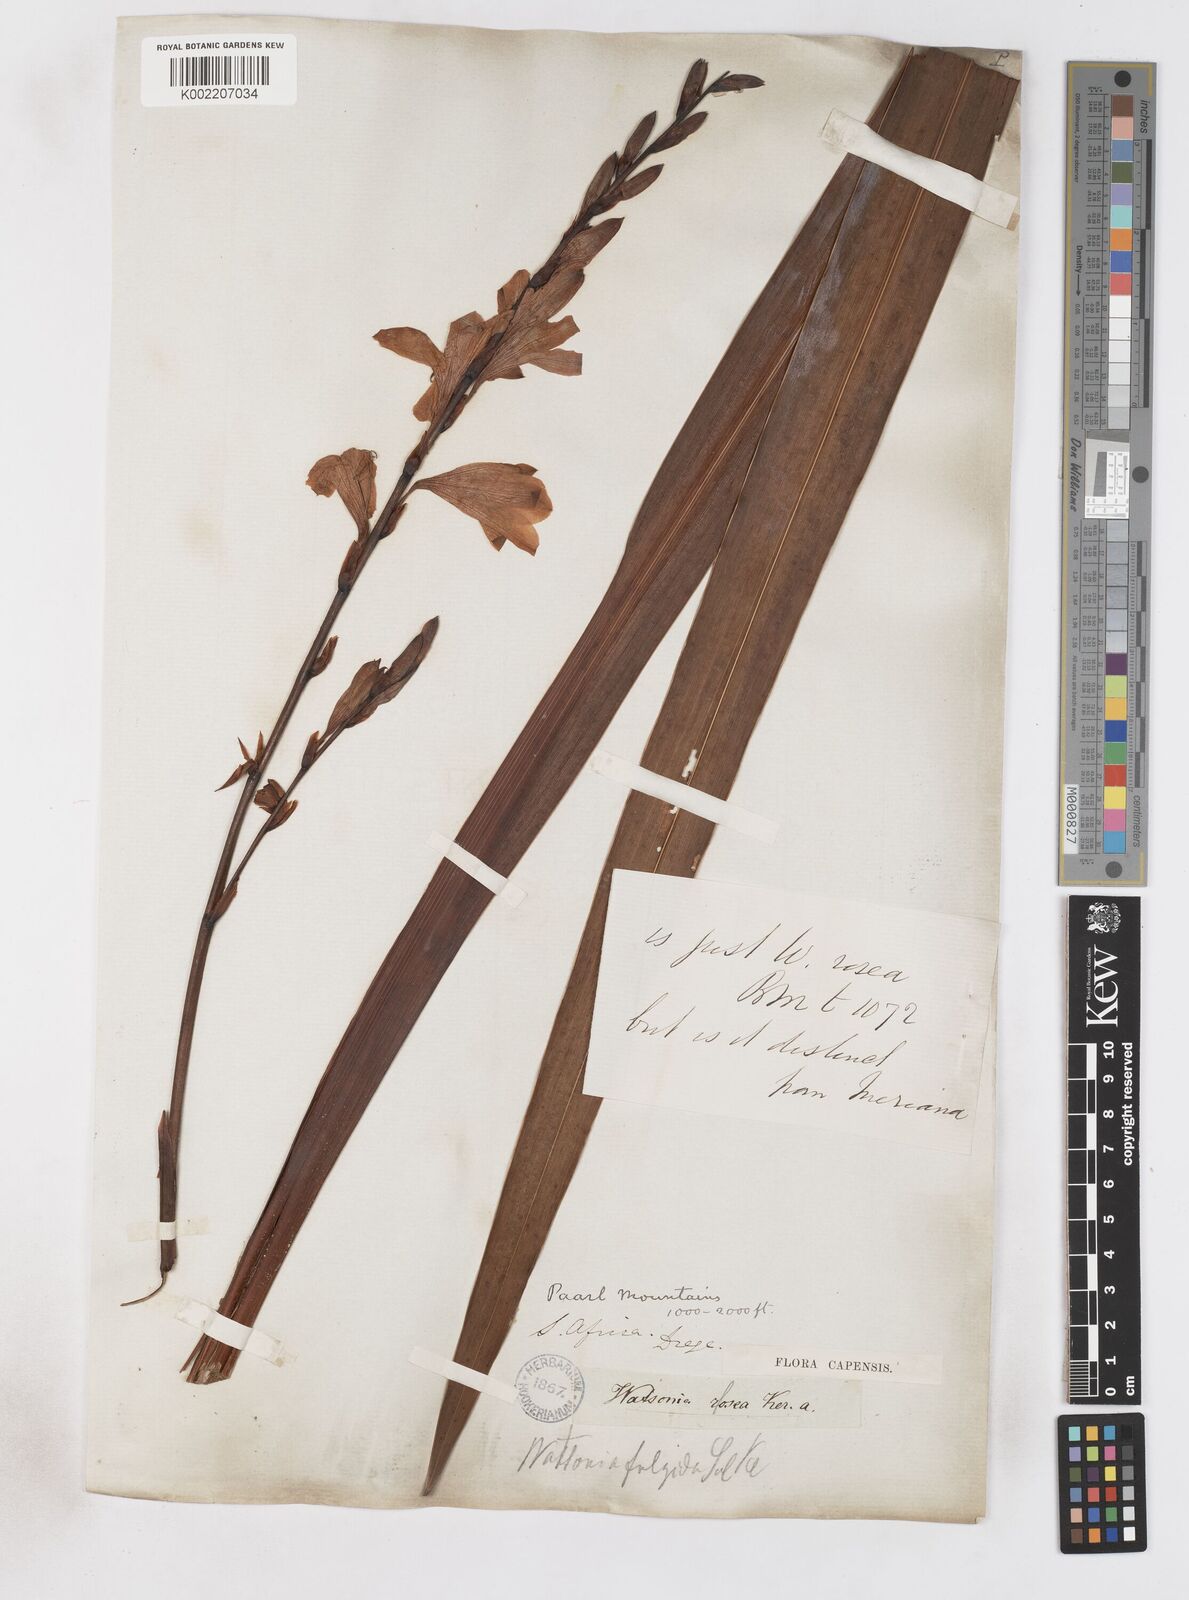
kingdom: Plantae
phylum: Tracheophyta
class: Liliopsida
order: Asparagales
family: Iridaceae
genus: Watsonia
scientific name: Watsonia borbonica
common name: Bugle-lily
